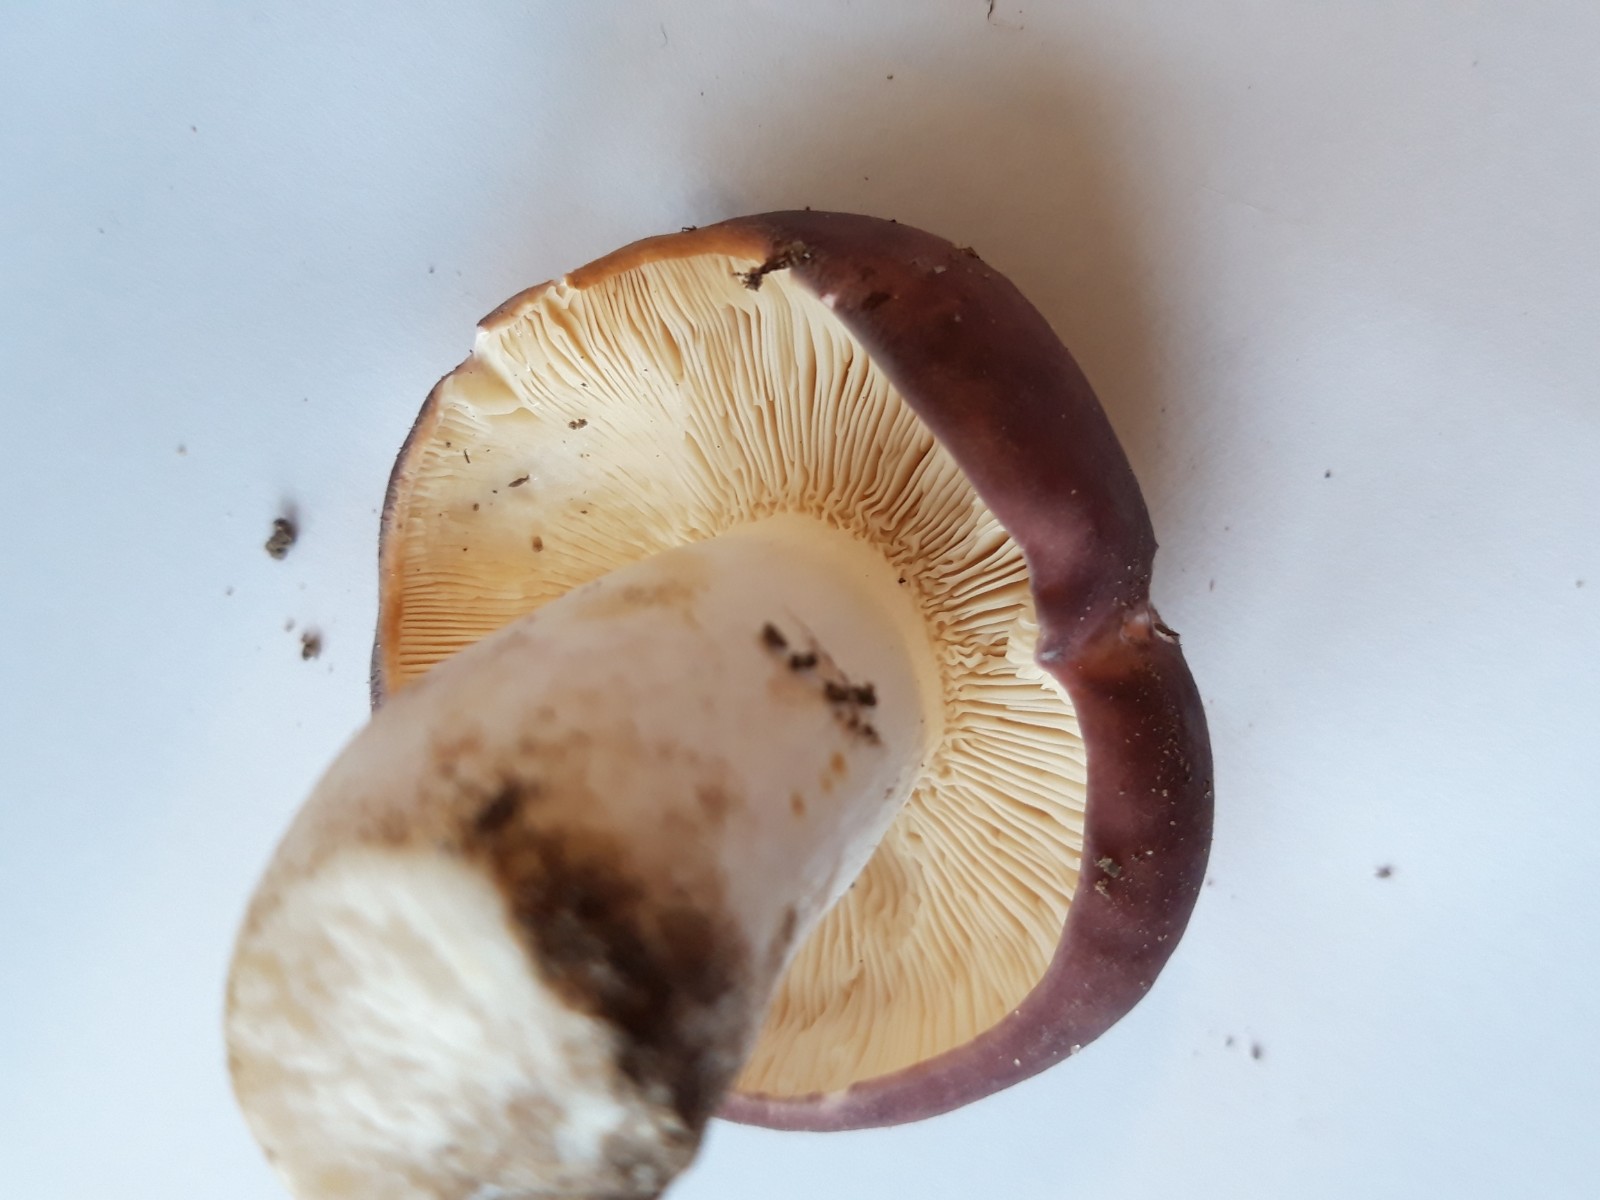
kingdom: Fungi
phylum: Basidiomycota
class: Agaricomycetes
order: Russulales
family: Russulaceae
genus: Russula
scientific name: Russula cyanoxantha
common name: broget skørhat
